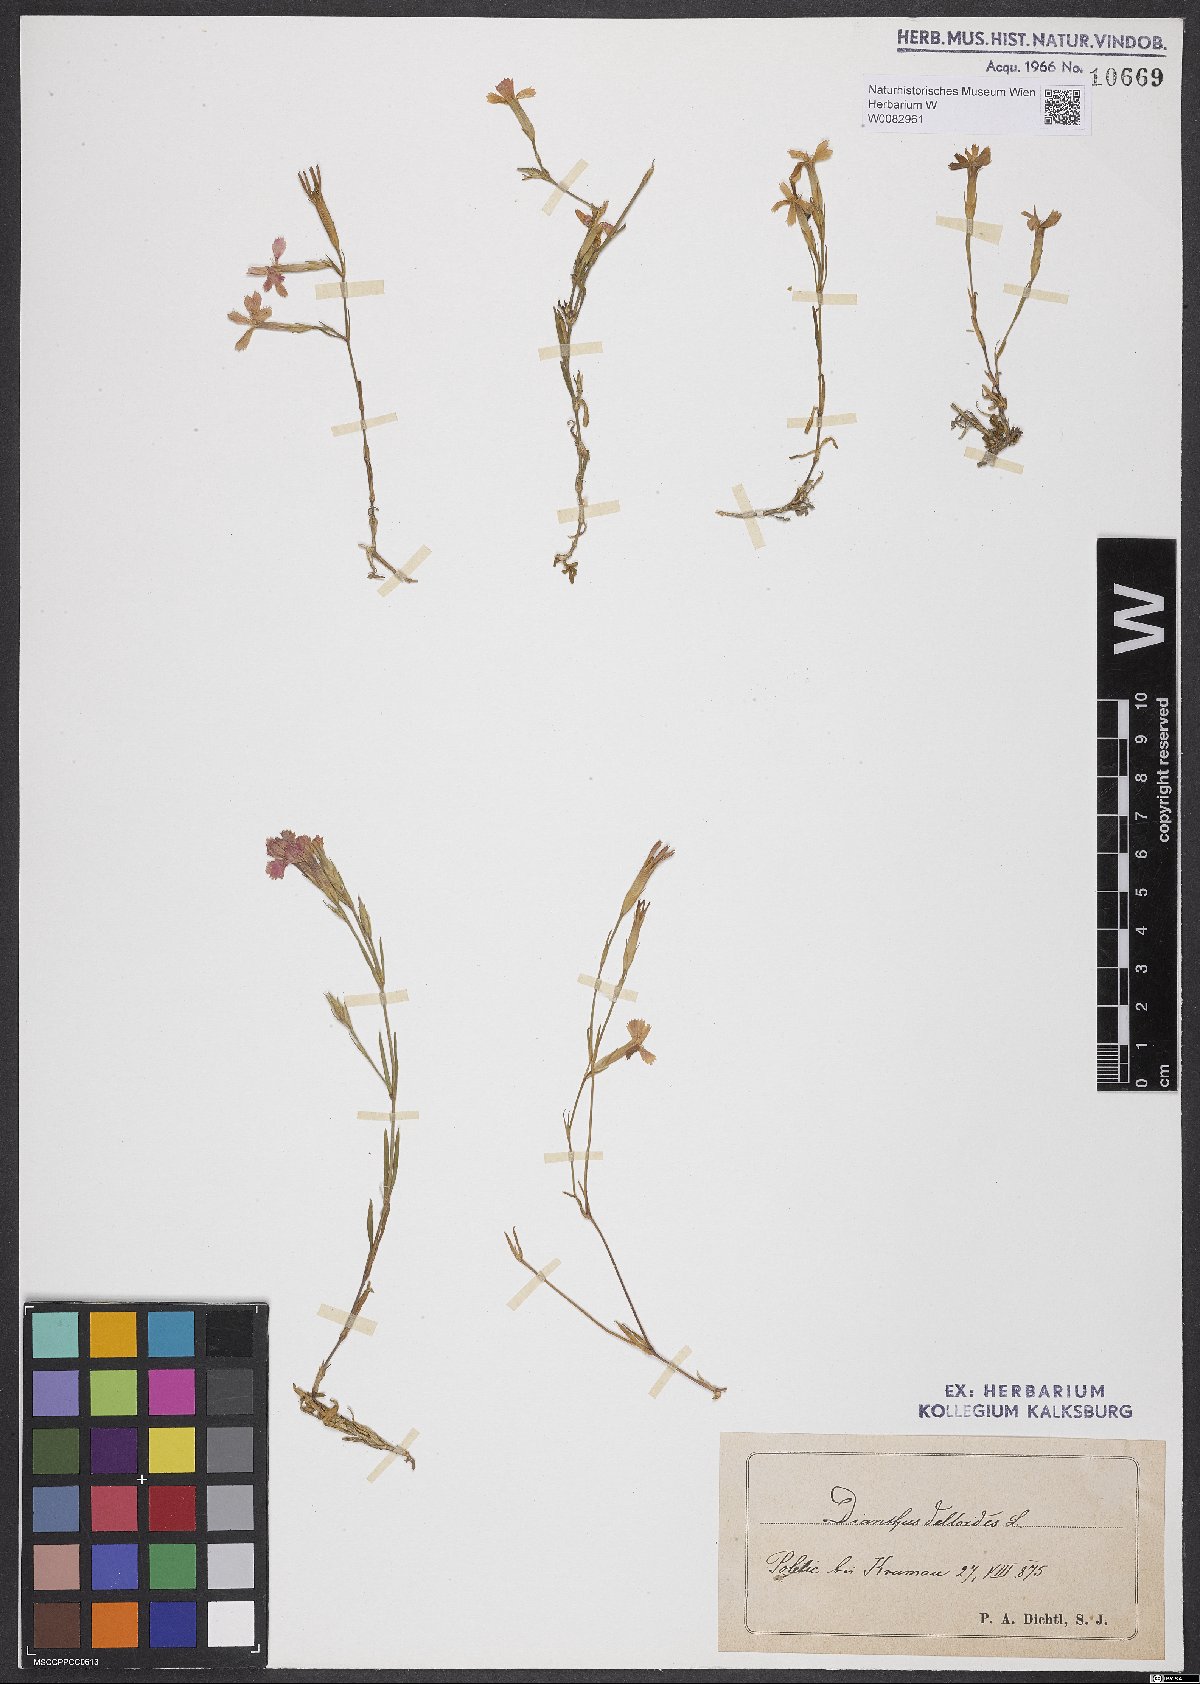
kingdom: Plantae
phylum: Tracheophyta
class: Magnoliopsida
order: Caryophyllales
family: Caryophyllaceae
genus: Dianthus
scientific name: Dianthus deltoides
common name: Maiden pink
